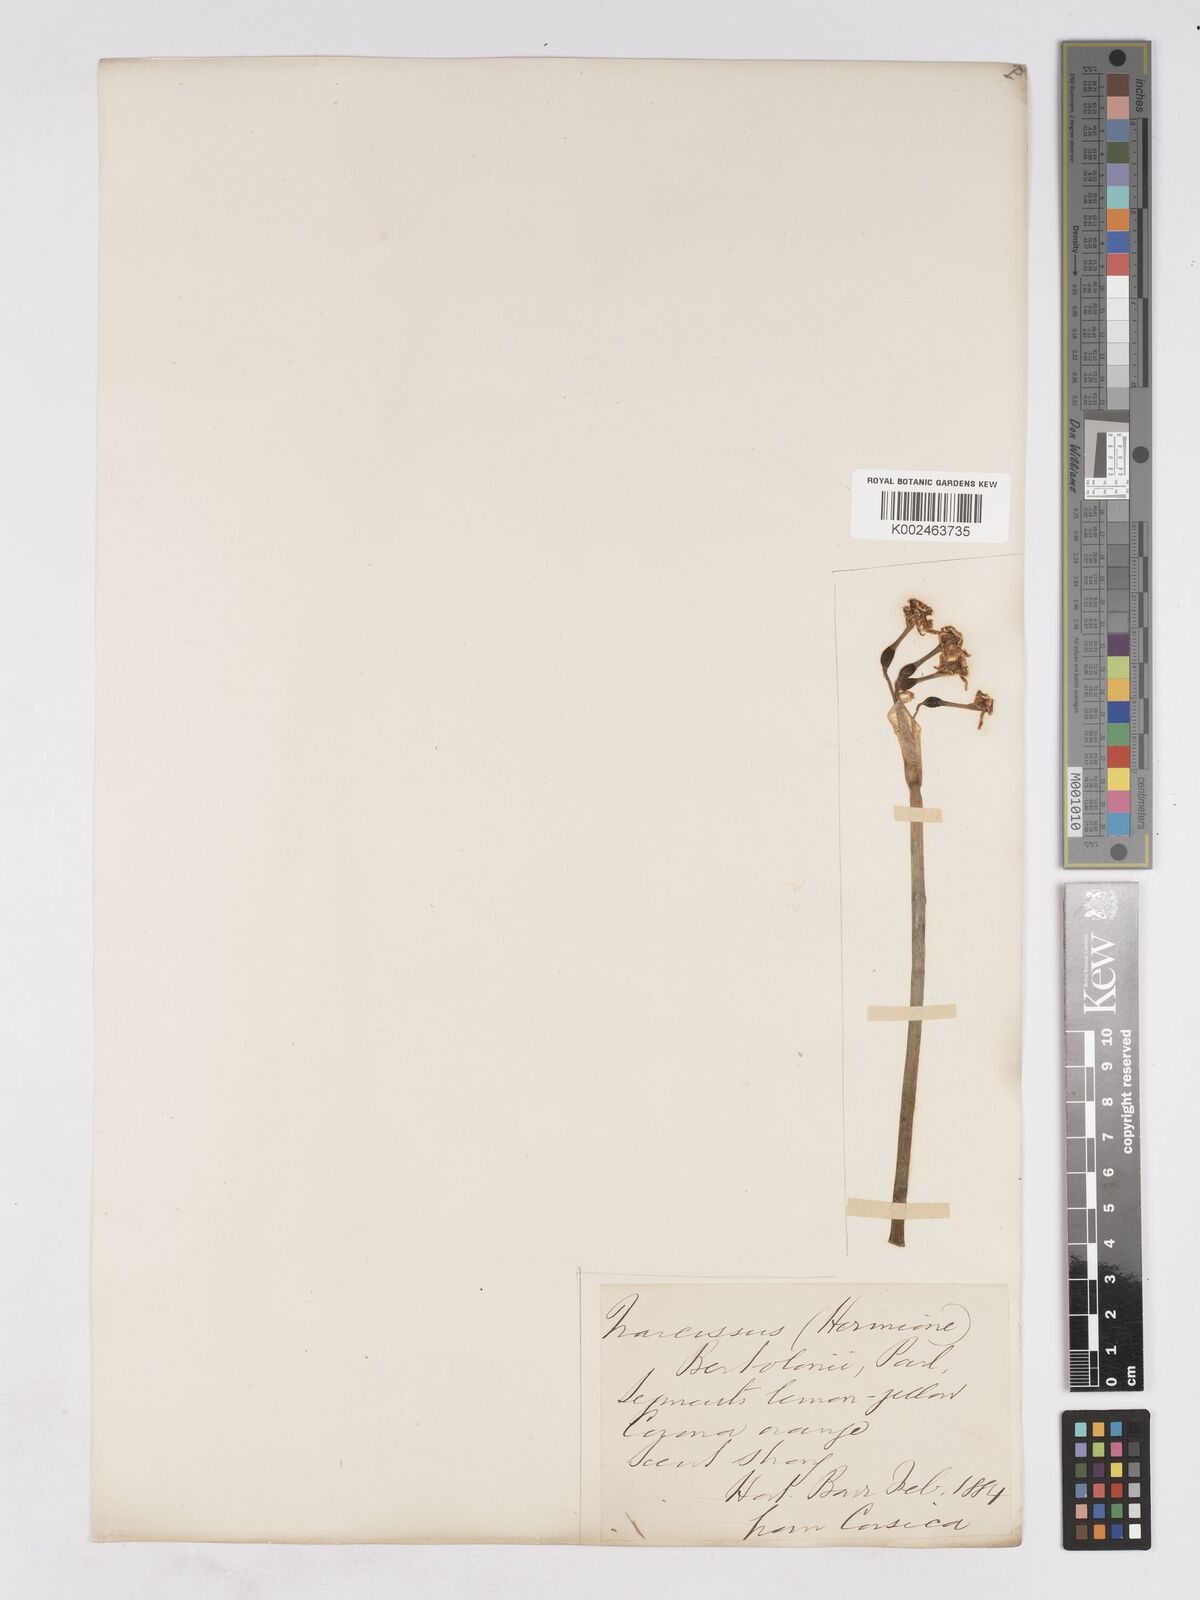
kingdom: Plantae
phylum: Tracheophyta
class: Liliopsida
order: Asparagales
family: Amaryllidaceae
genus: Narcissus
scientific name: Narcissus tazetta
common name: Bunch-flowered daffodil
